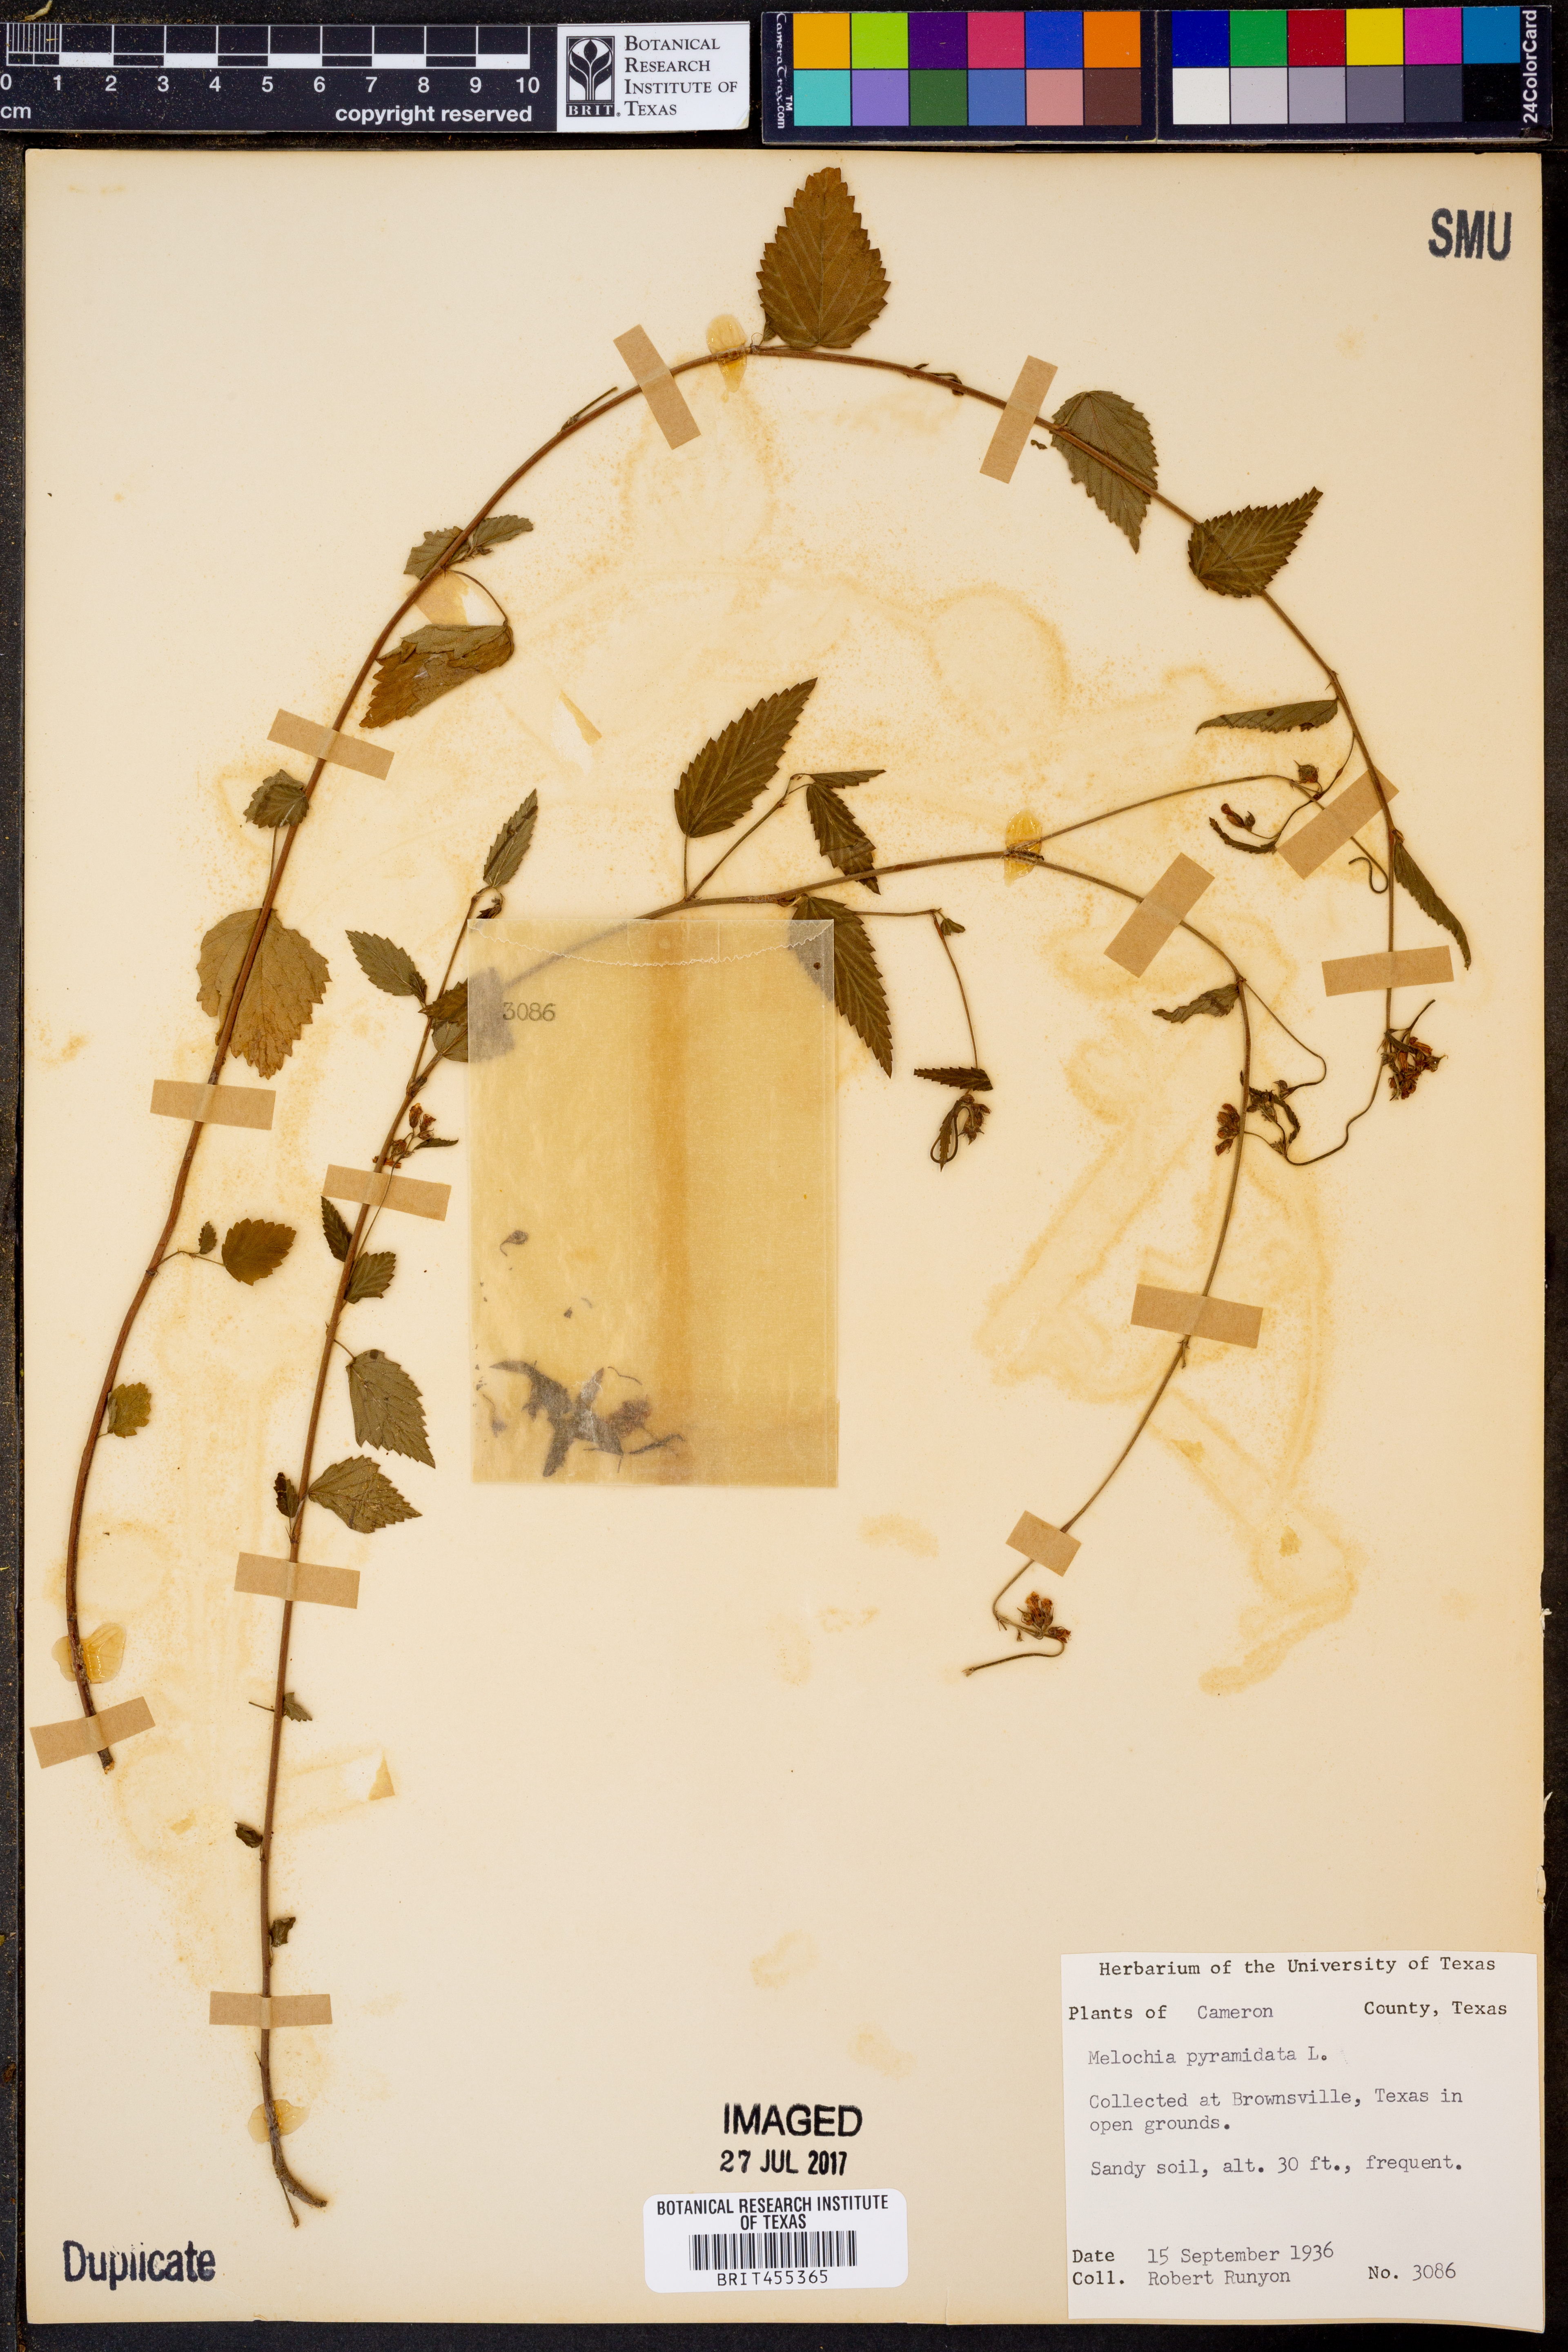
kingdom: Plantae
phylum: Tracheophyta
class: Magnoliopsida
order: Malvales
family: Malvaceae
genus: Melochia
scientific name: Melochia pyramidata
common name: Pyramidflower
